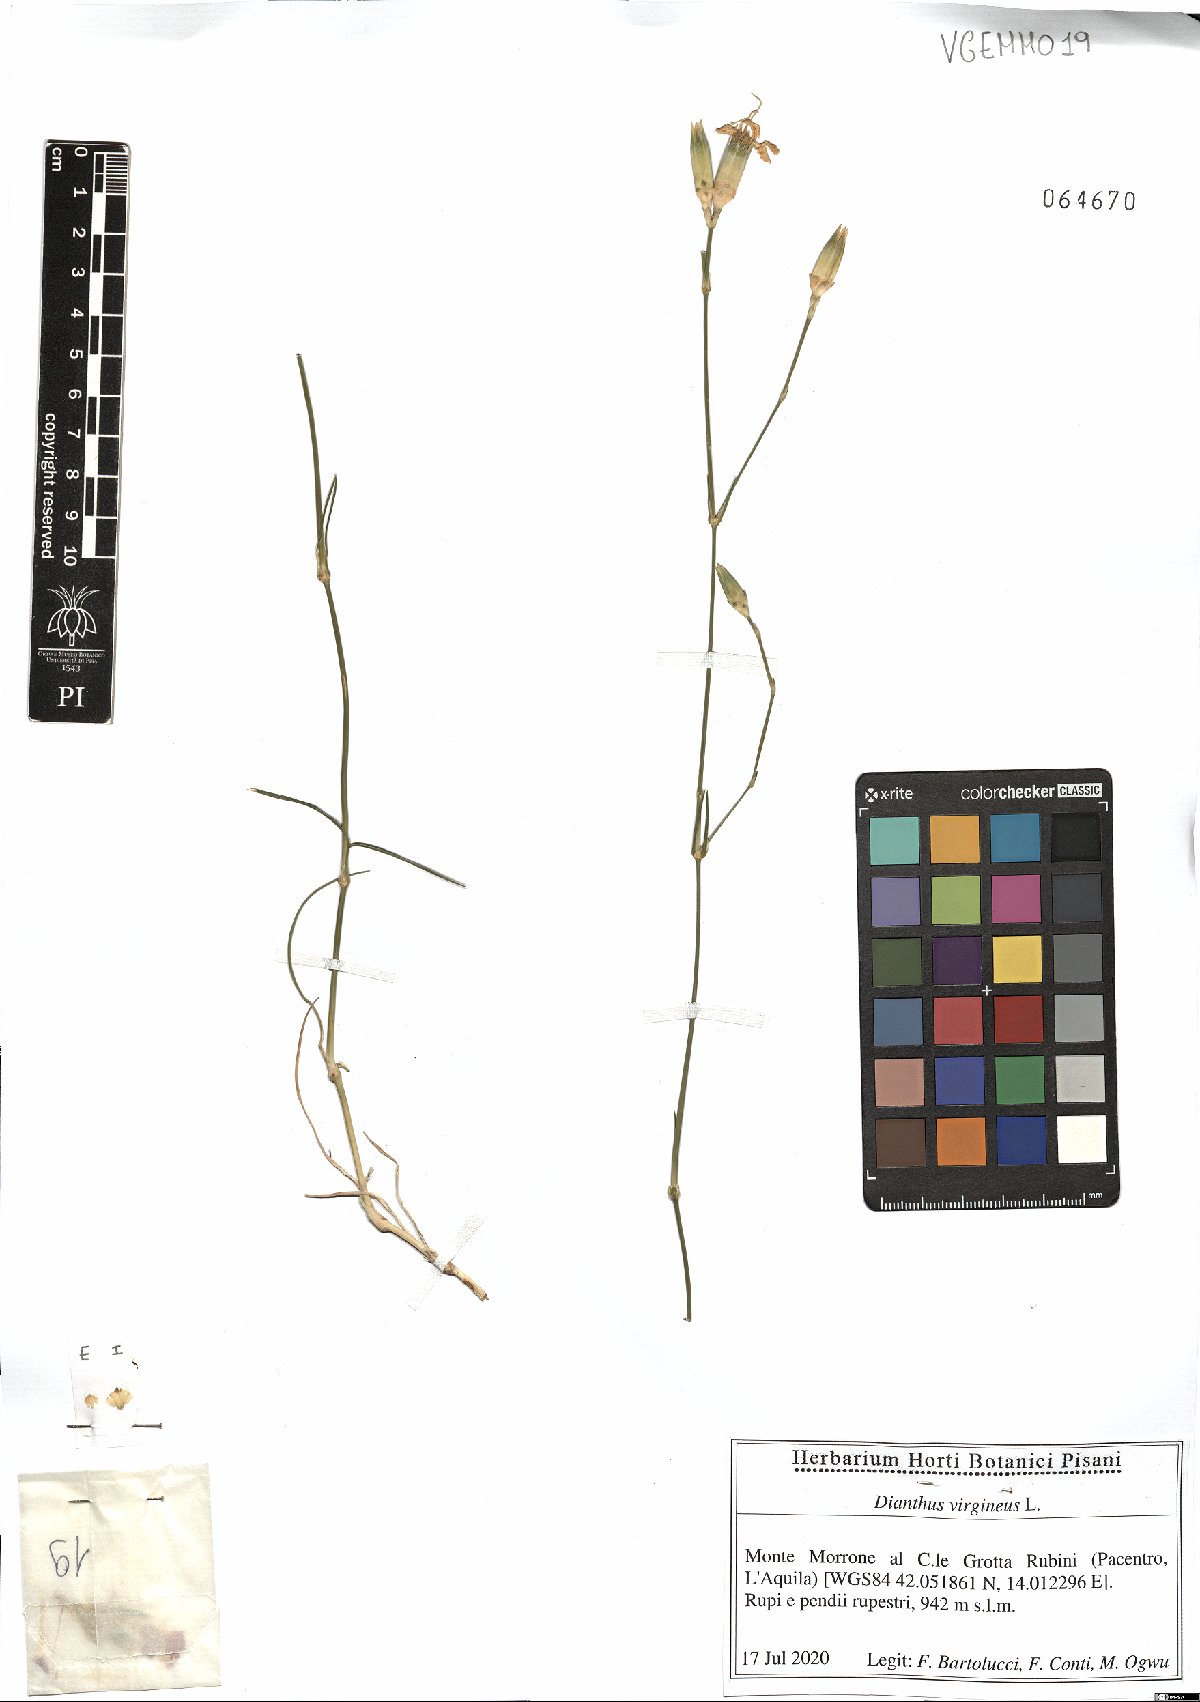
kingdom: Plantae
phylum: Tracheophyta
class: Magnoliopsida
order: Caryophyllales
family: Caryophyllaceae
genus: Dianthus
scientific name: Dianthus virgineus
